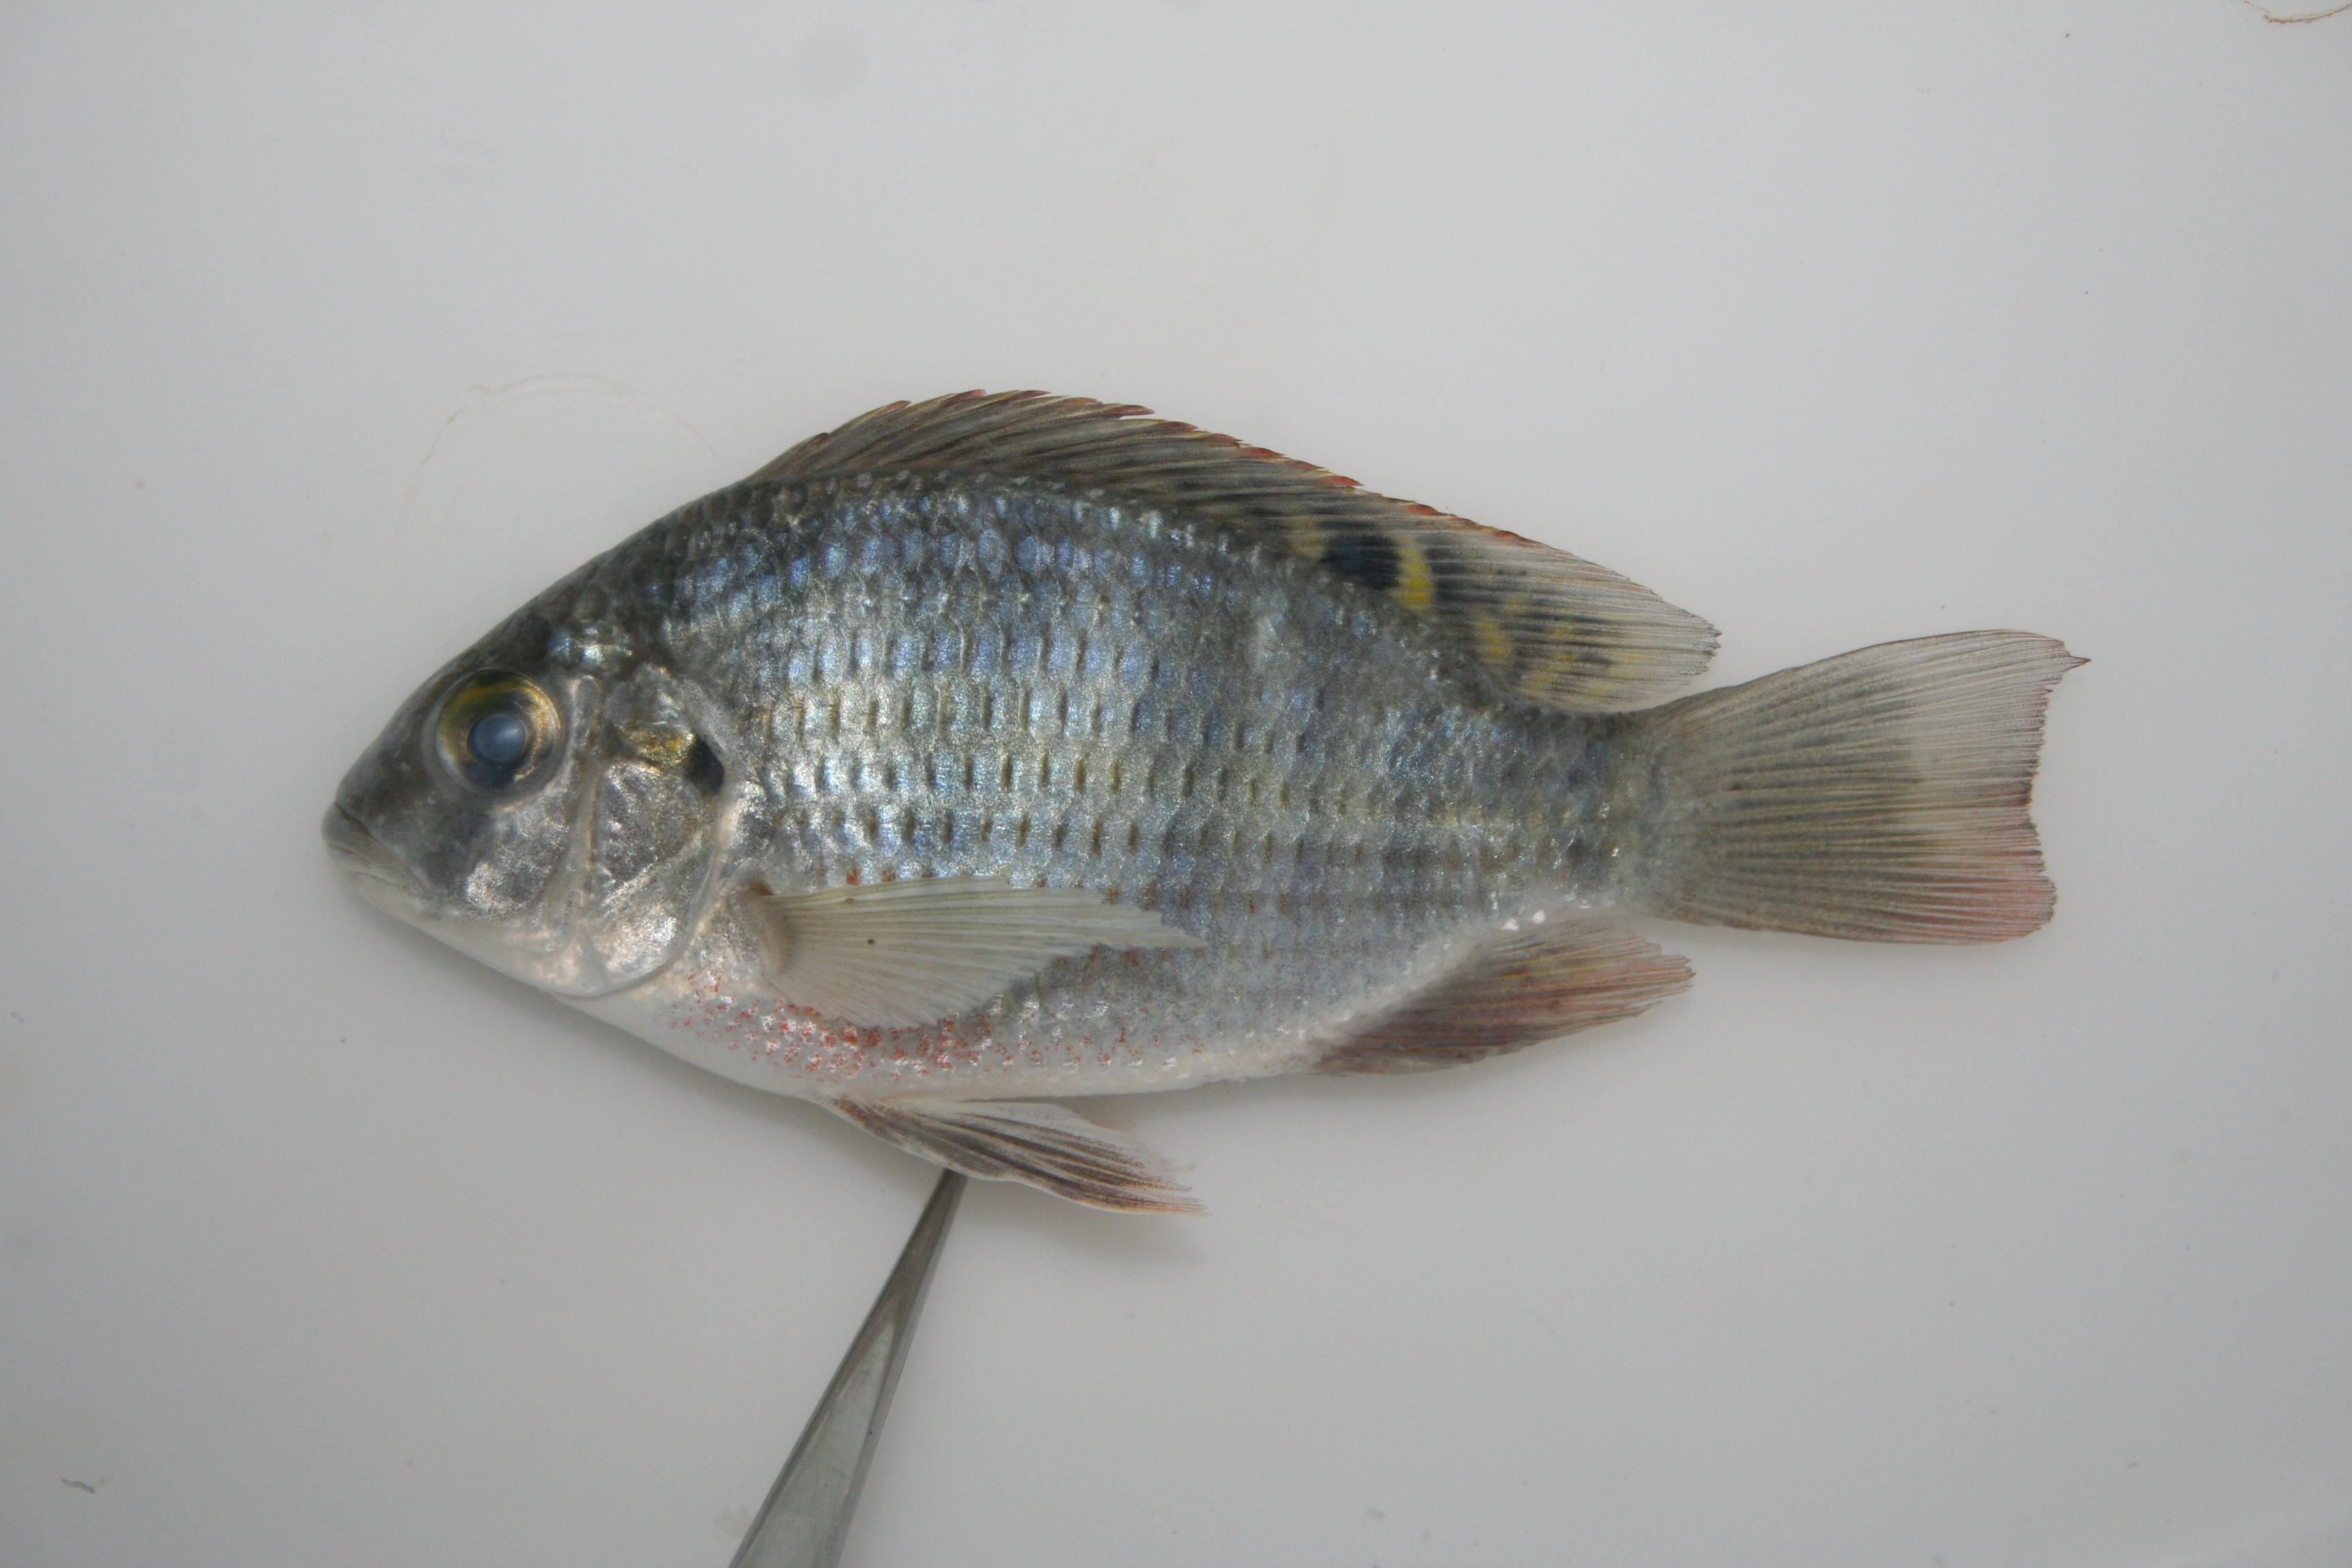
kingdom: Animalia
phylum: Chordata
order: Perciformes
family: Cichlidae
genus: Coptodon
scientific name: Coptodon rendalli
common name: Redbreast tilapia
